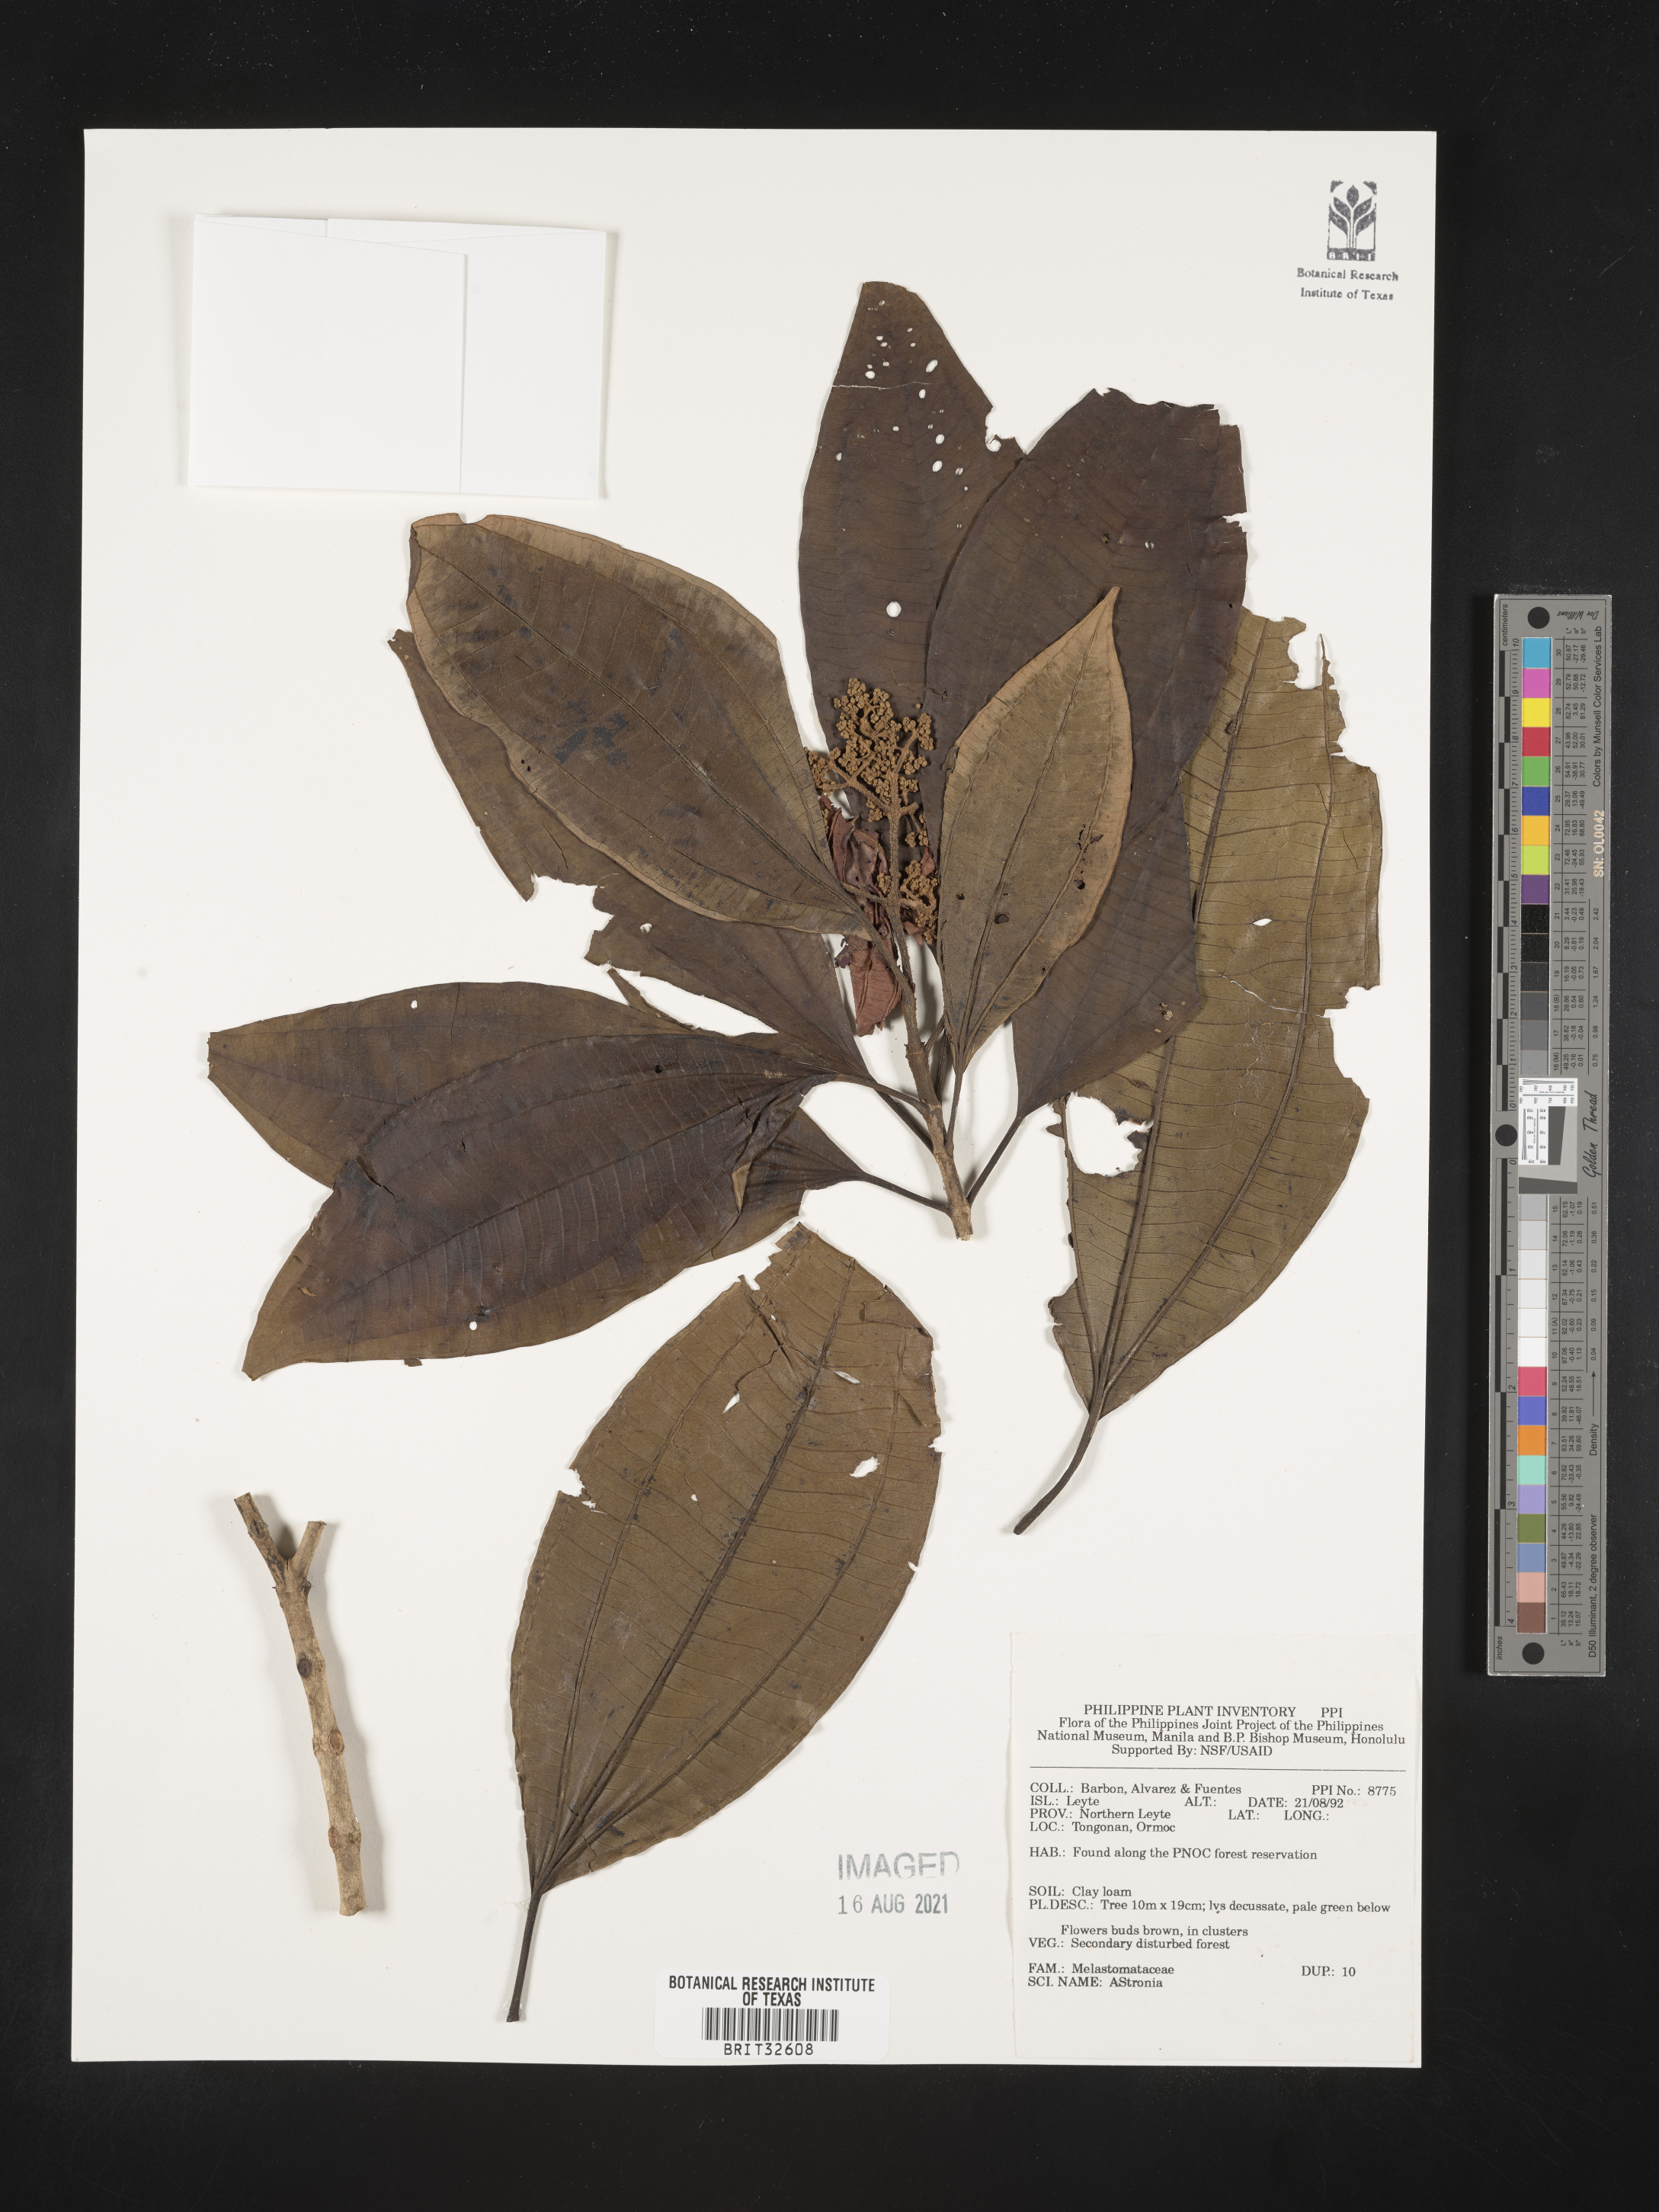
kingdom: Plantae
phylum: Tracheophyta
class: Magnoliopsida
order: Myrtales
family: Melastomataceae
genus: Astronia
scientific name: Astronia
